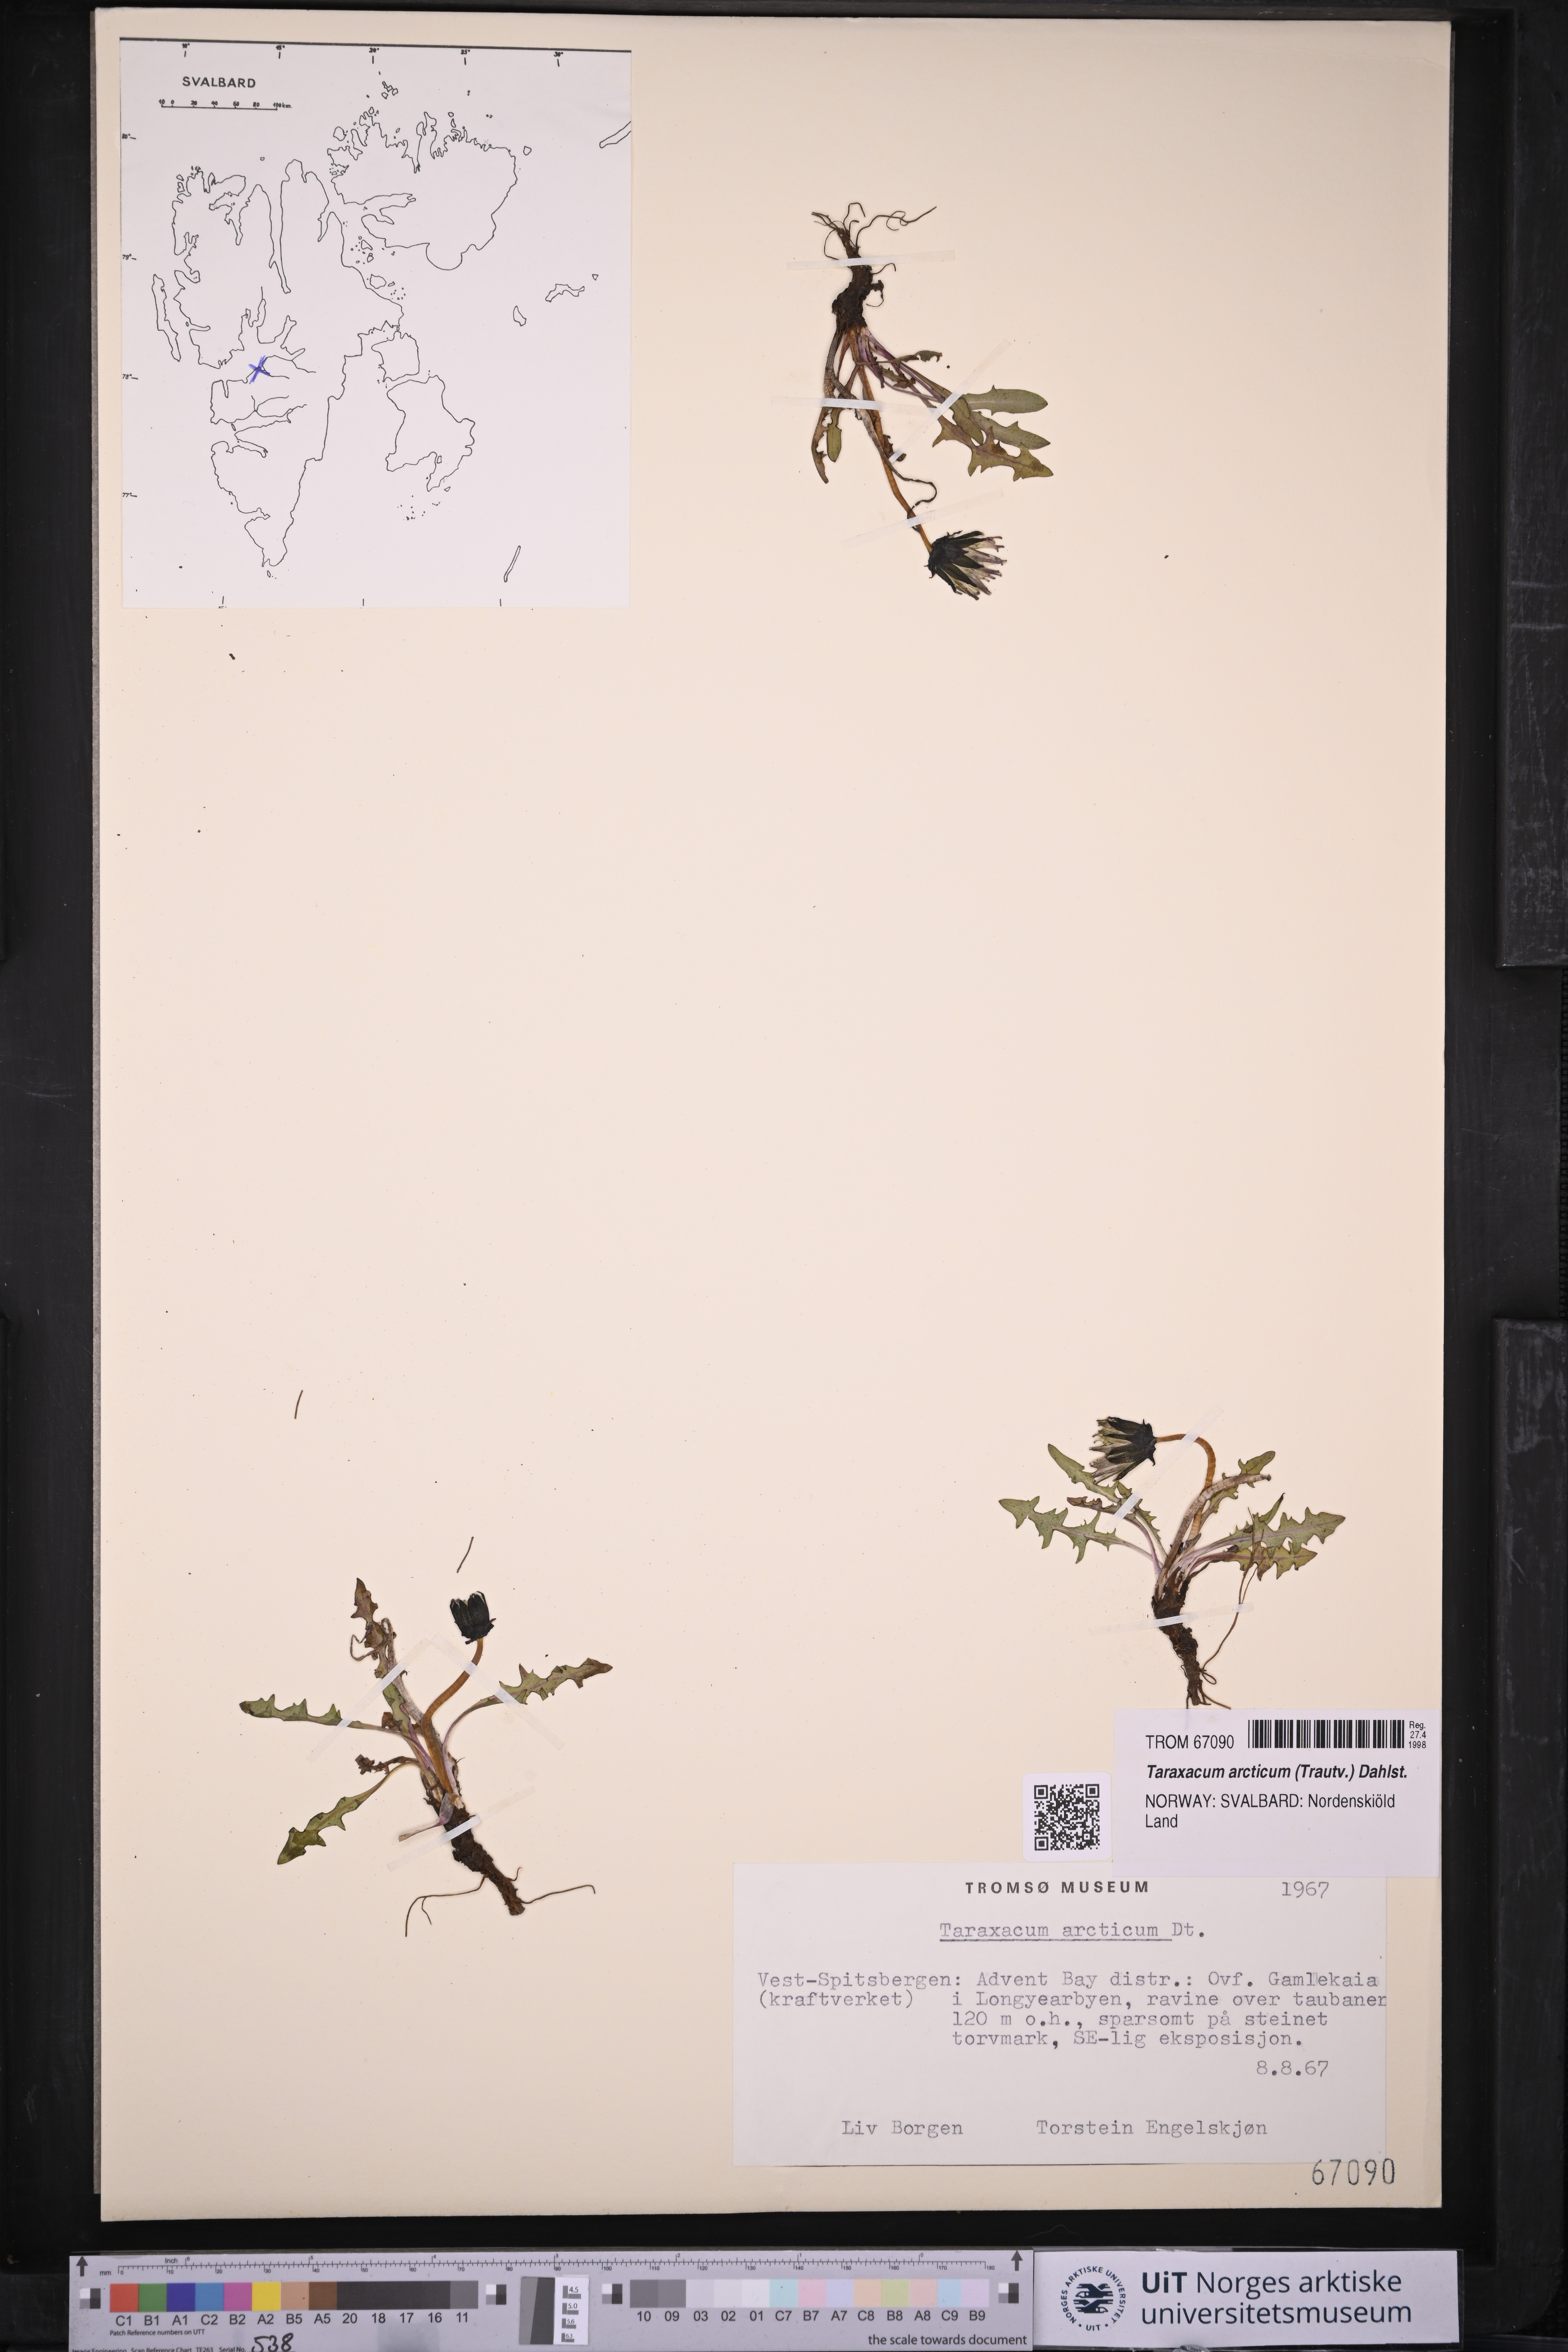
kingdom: Plantae
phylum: Tracheophyta
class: Magnoliopsida
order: Asterales
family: Asteraceae
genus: Taraxacum
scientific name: Taraxacum arcticum
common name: Arctic dandelion
